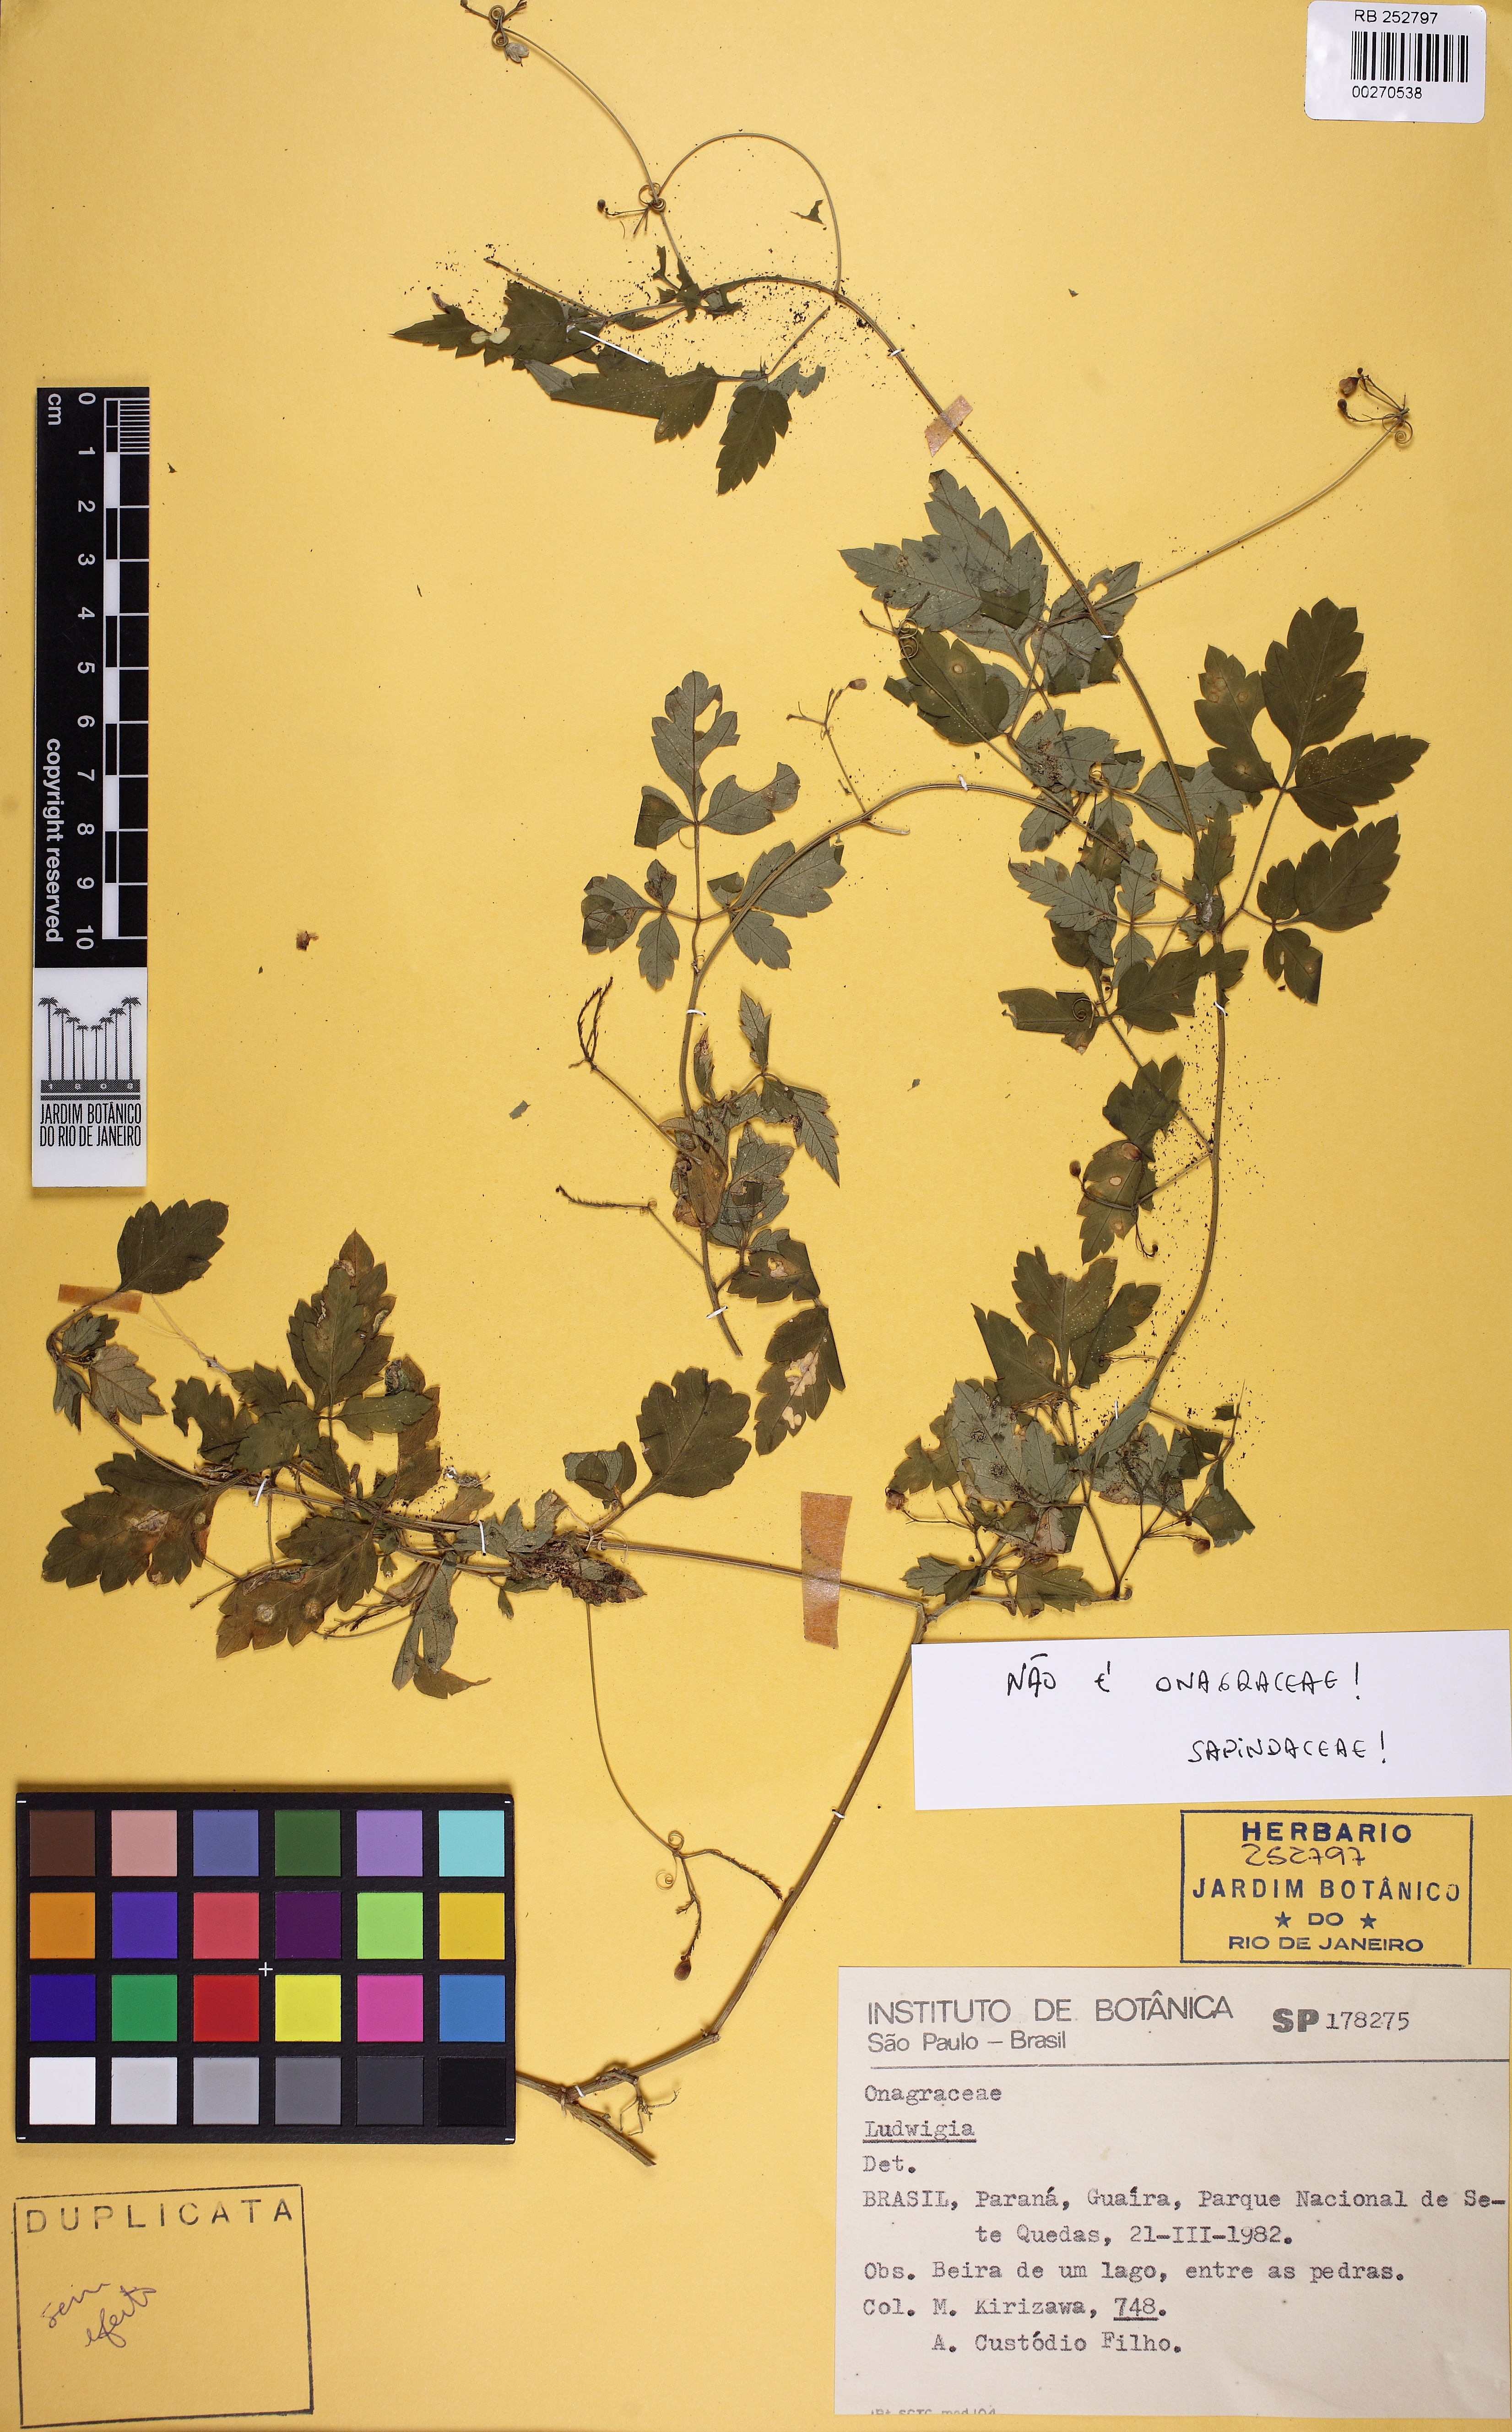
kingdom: Plantae
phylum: Tracheophyta
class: Magnoliopsida
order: Sapindales
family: Sapindaceae
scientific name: Sapindaceae
